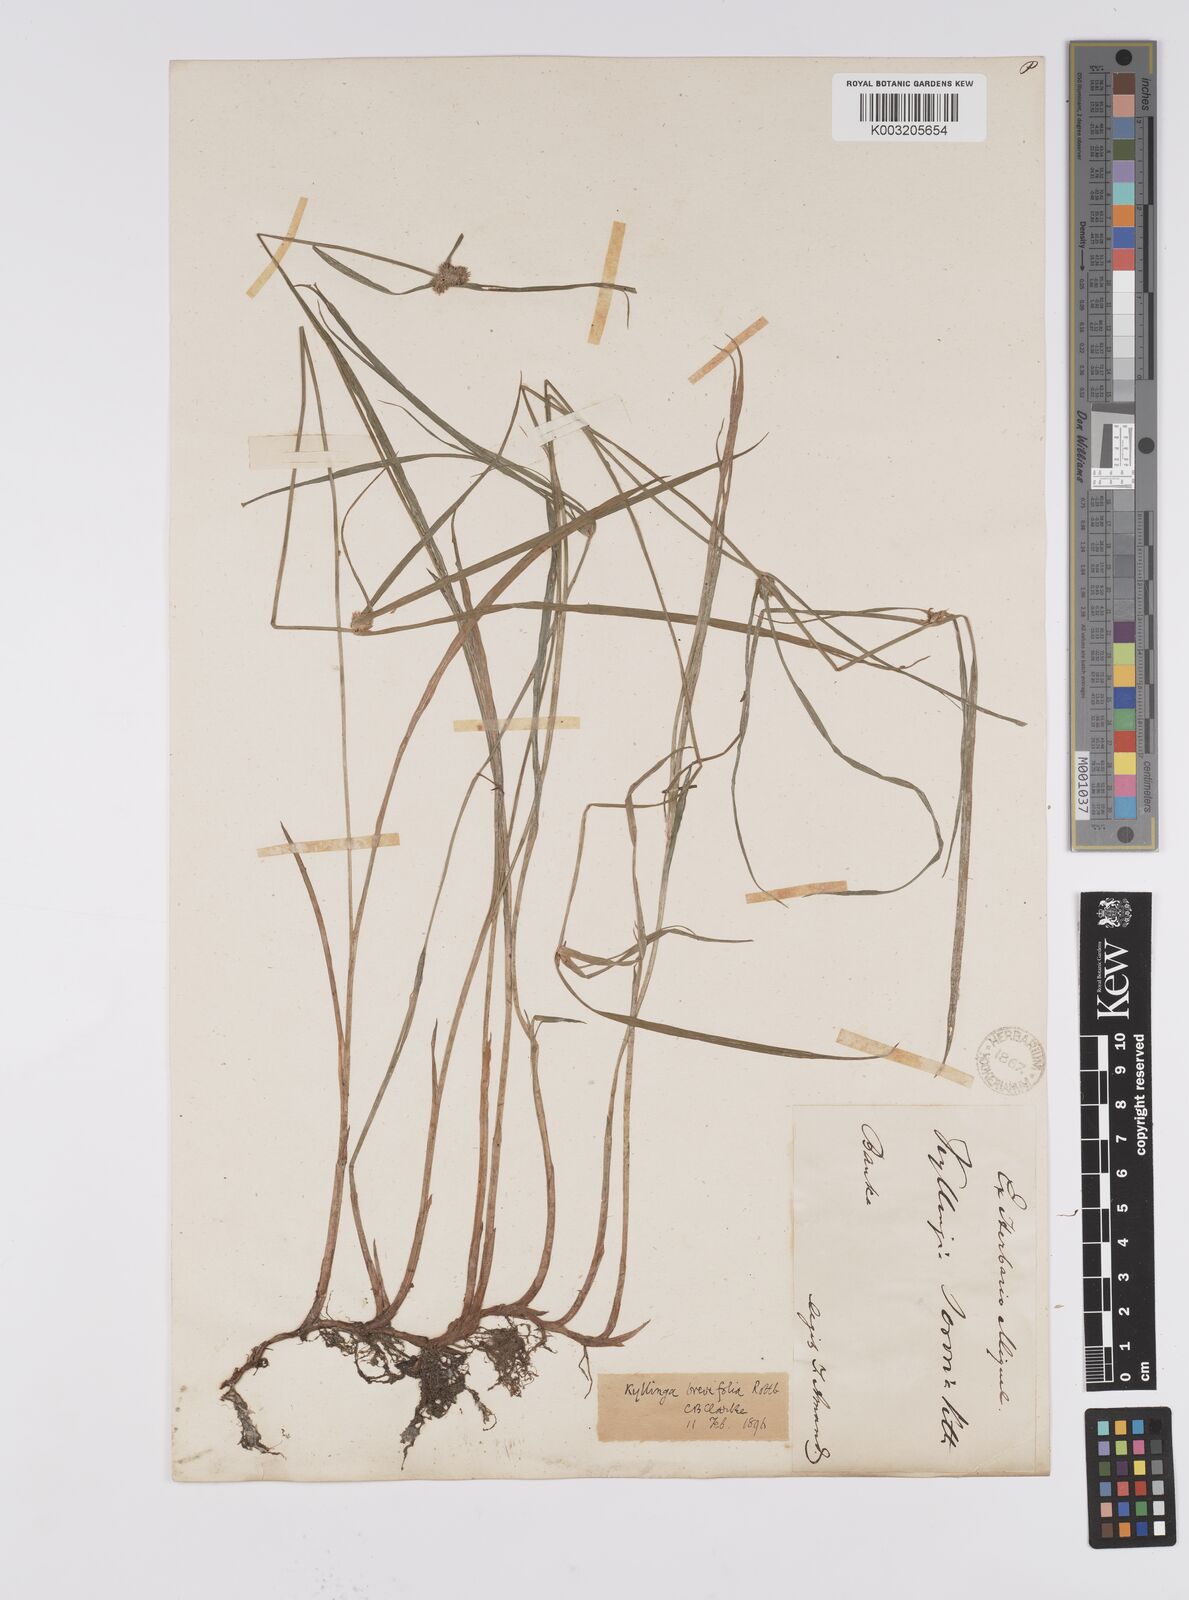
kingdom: Plantae
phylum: Tracheophyta
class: Liliopsida
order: Poales
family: Cyperaceae
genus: Cyperus
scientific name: Cyperus brevifolius
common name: Globe kyllinga
